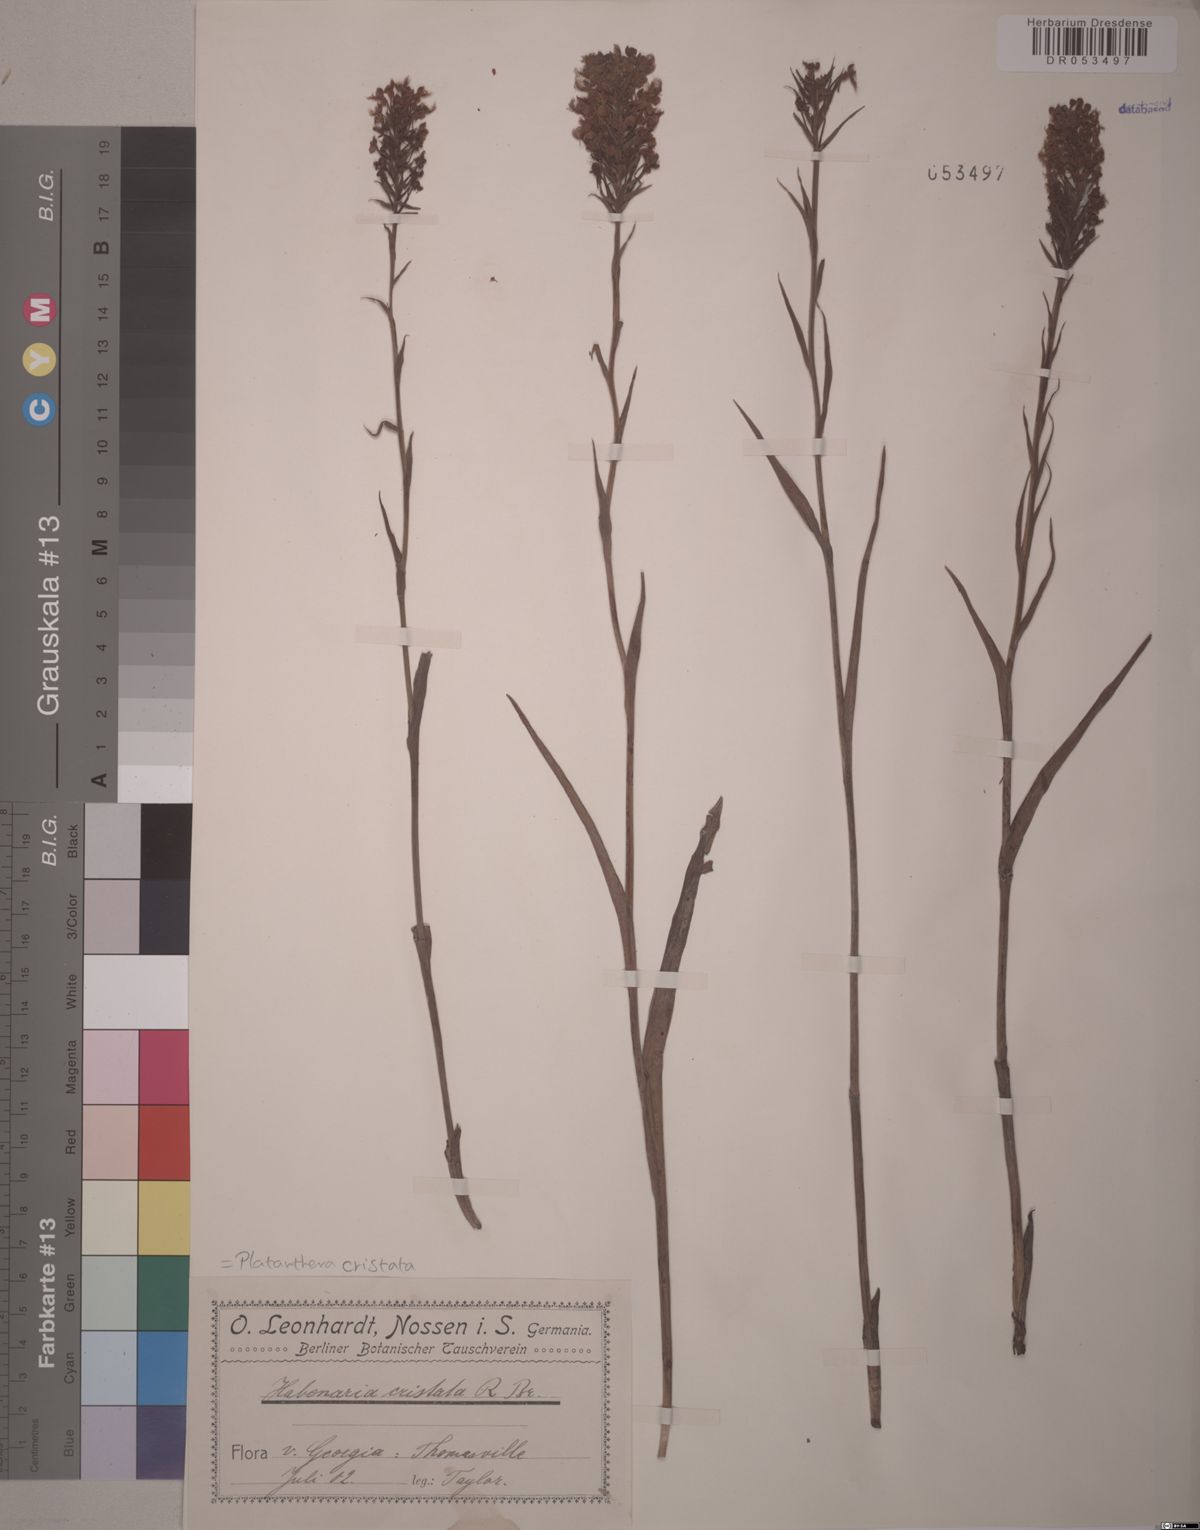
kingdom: Plantae
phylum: Tracheophyta
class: Liliopsida
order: Asparagales
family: Orchidaceae
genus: Platanthera
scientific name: Platanthera cristata
